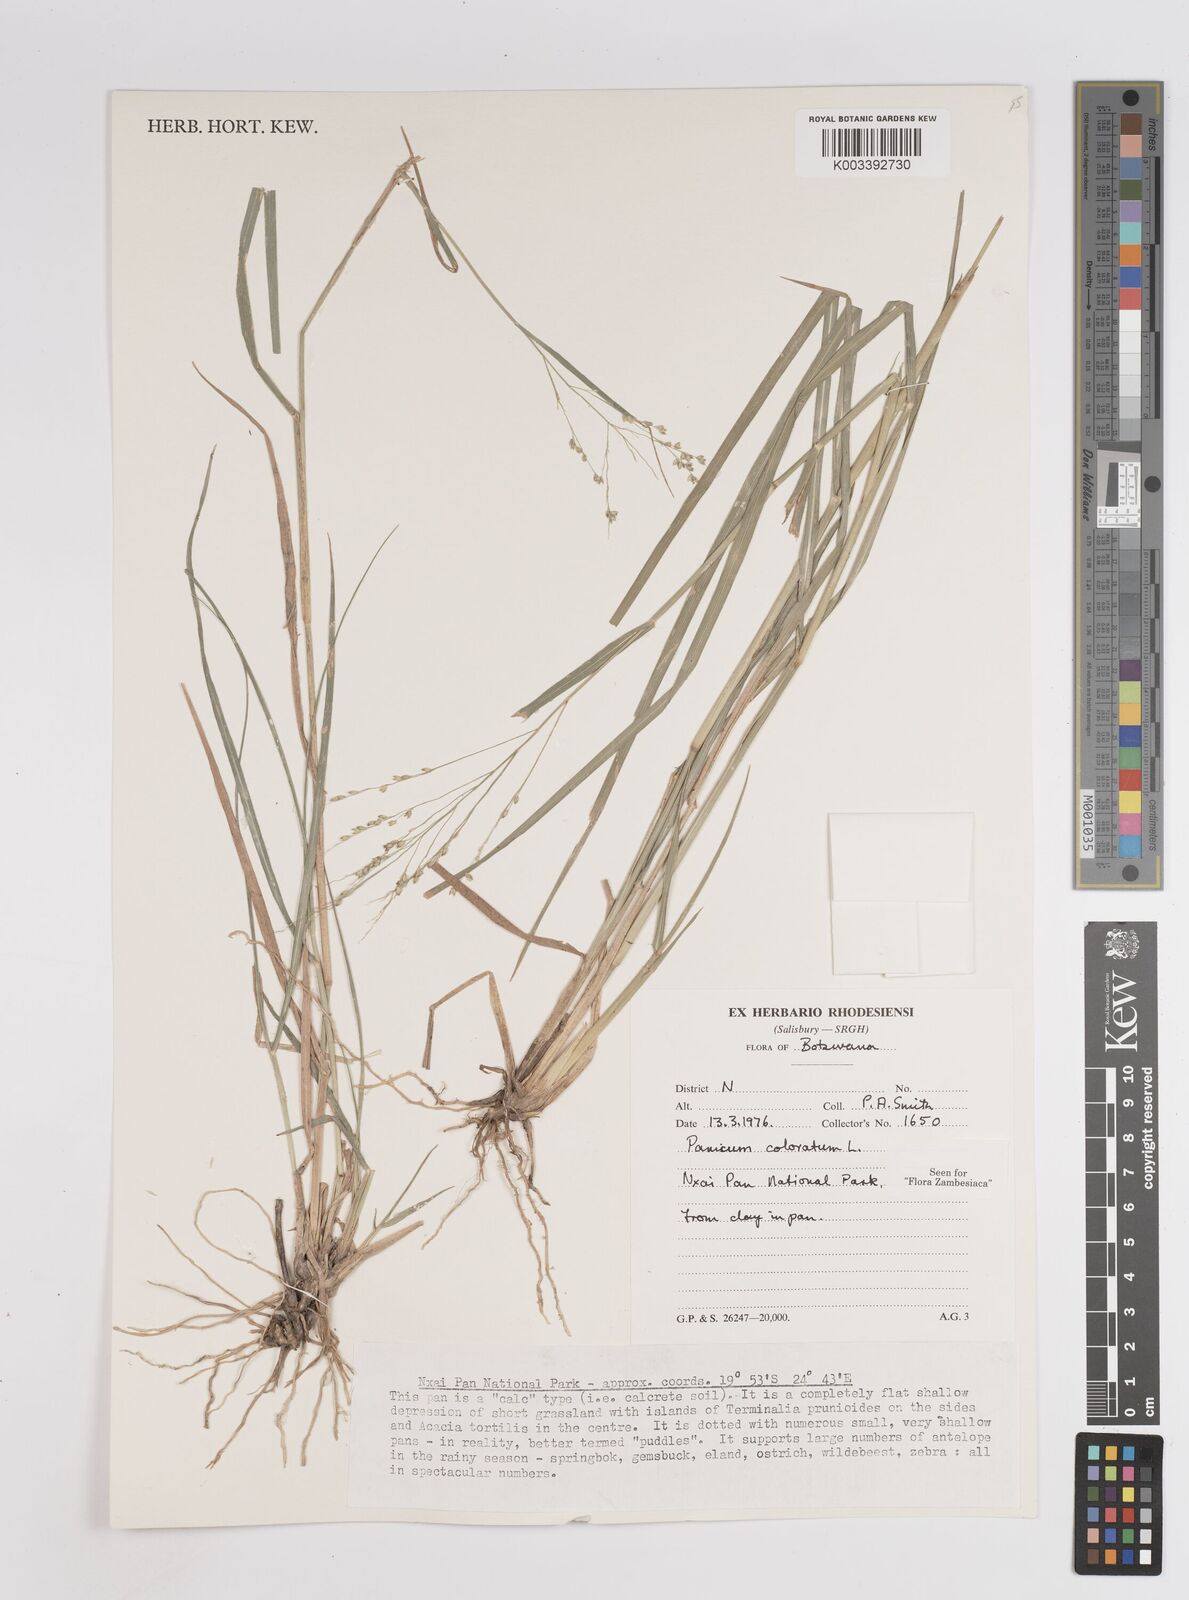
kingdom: Plantae
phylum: Tracheophyta
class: Liliopsida
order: Poales
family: Poaceae
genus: Panicum
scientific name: Panicum coloratum
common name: Kleingrass
